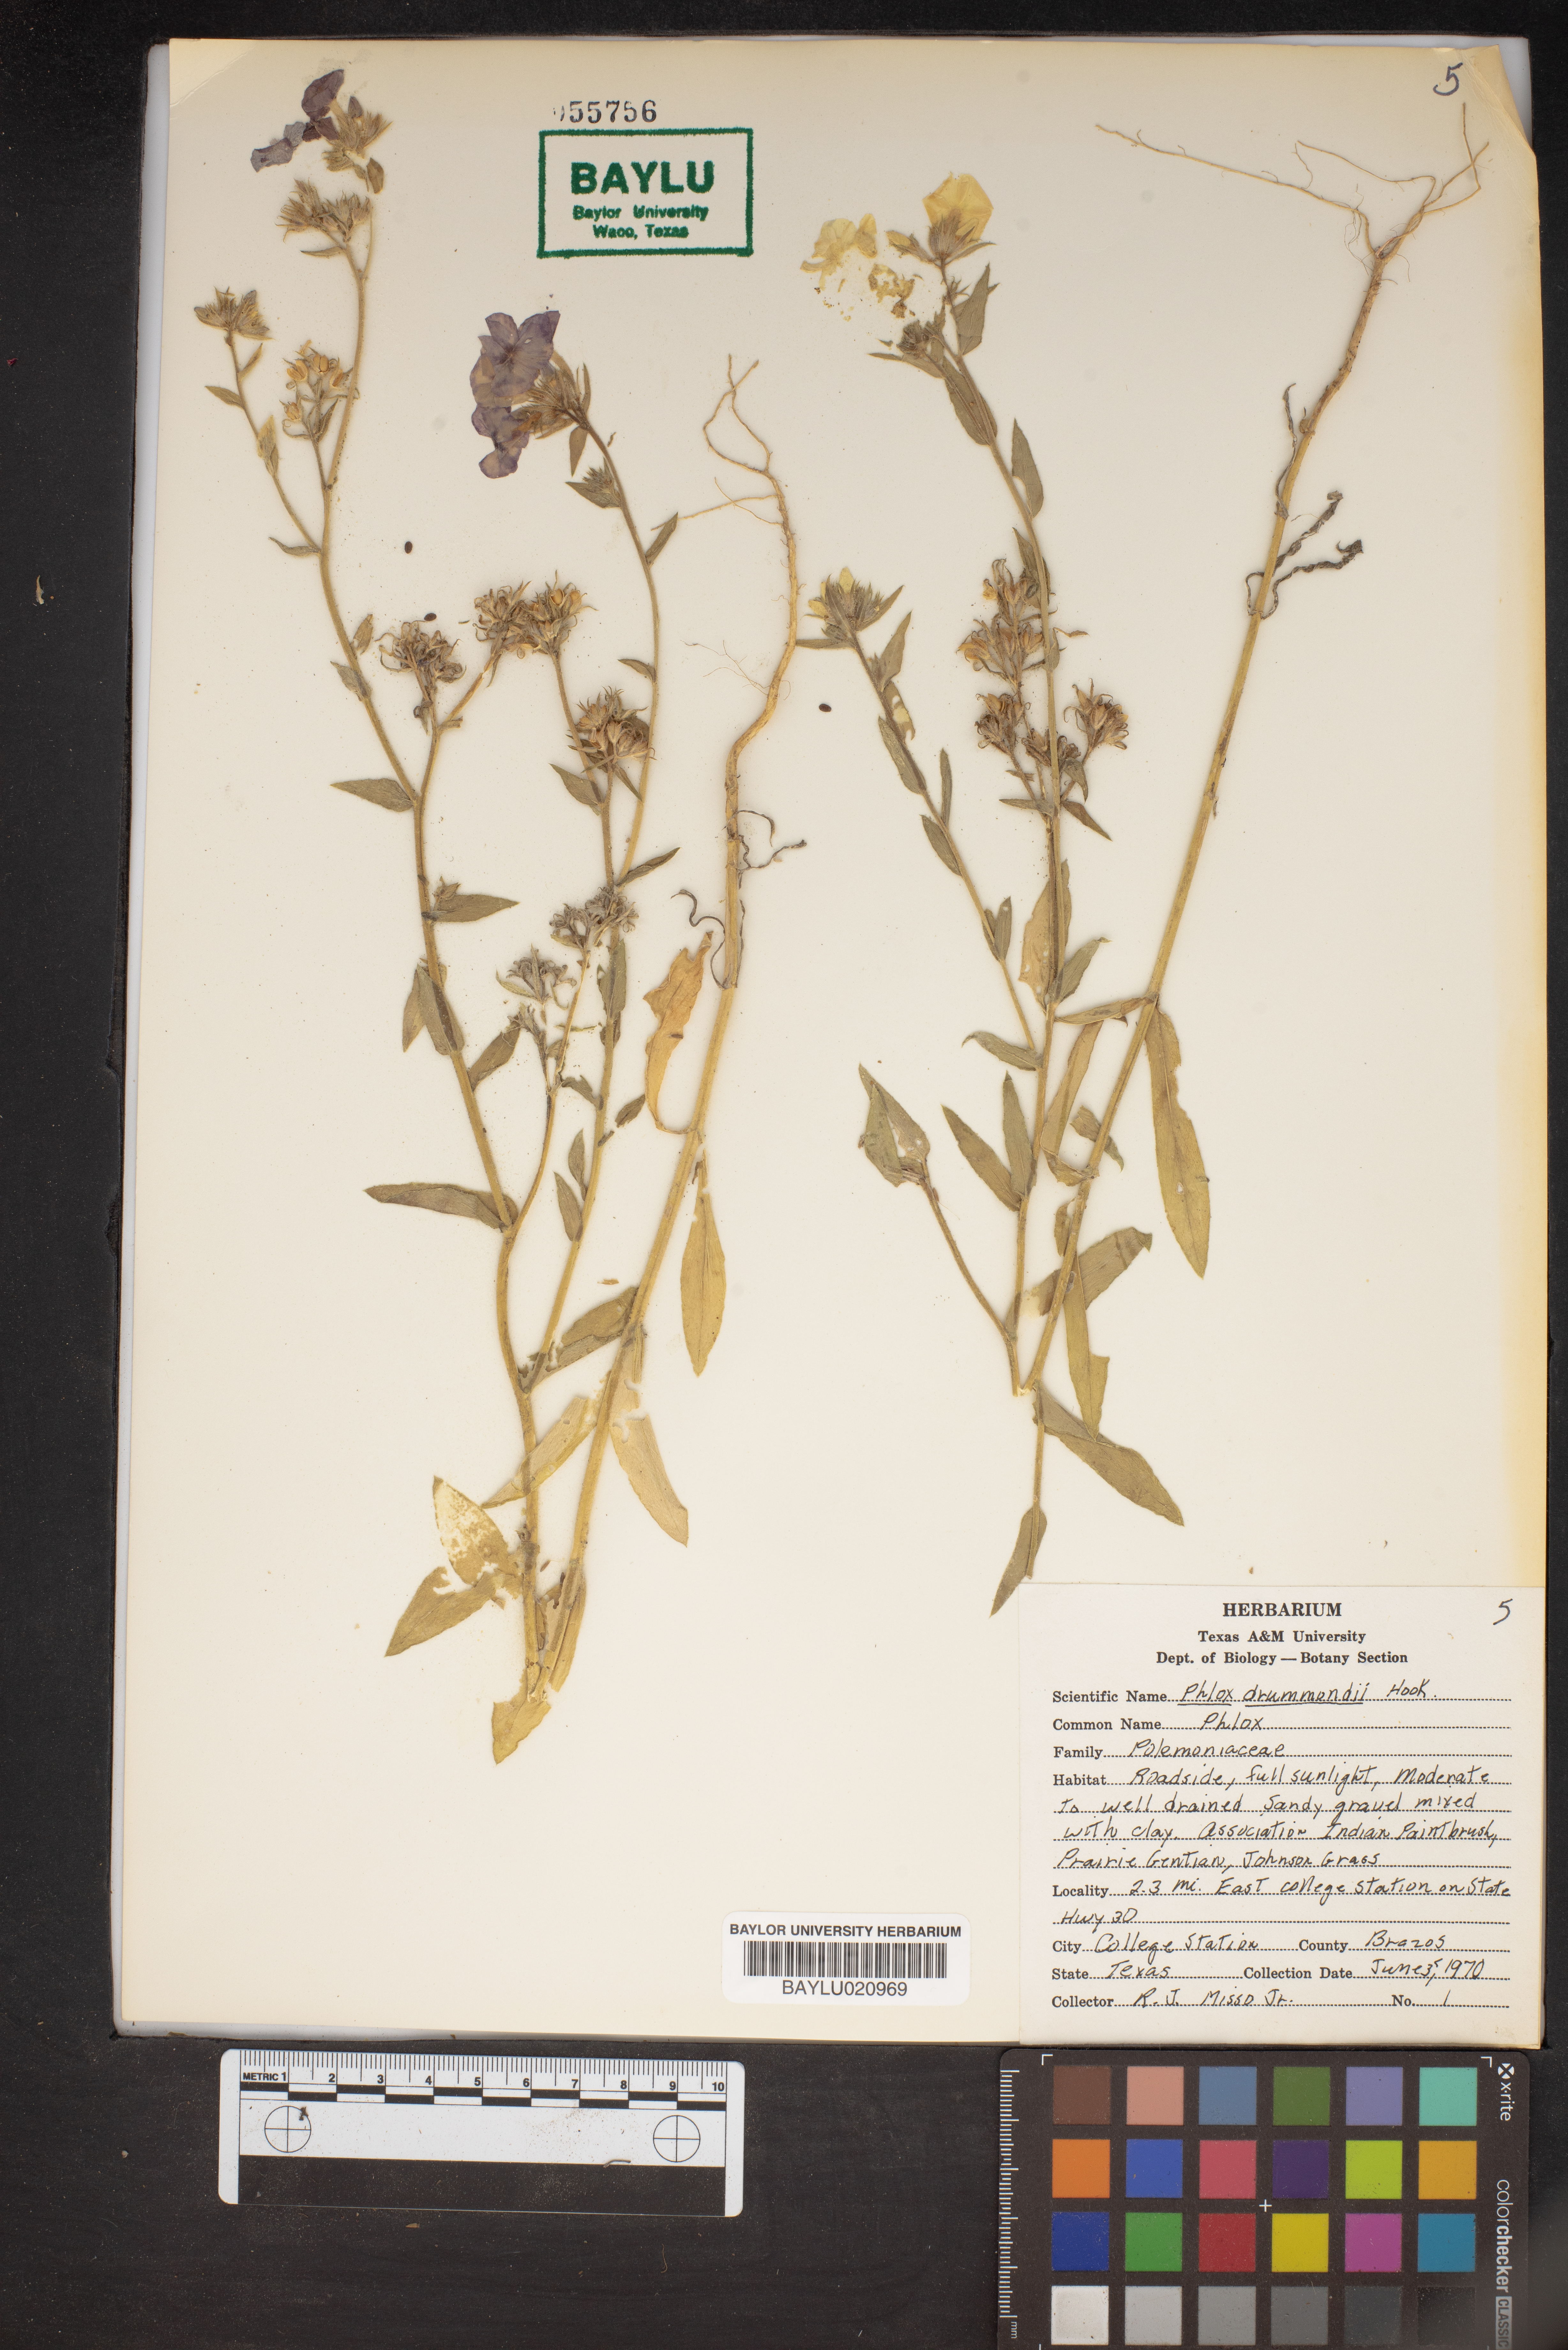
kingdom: Plantae
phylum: Tracheophyta
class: Magnoliopsida
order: Ericales
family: Polemoniaceae
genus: Phlox
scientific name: Phlox drummondii
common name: Drummond's phlox
